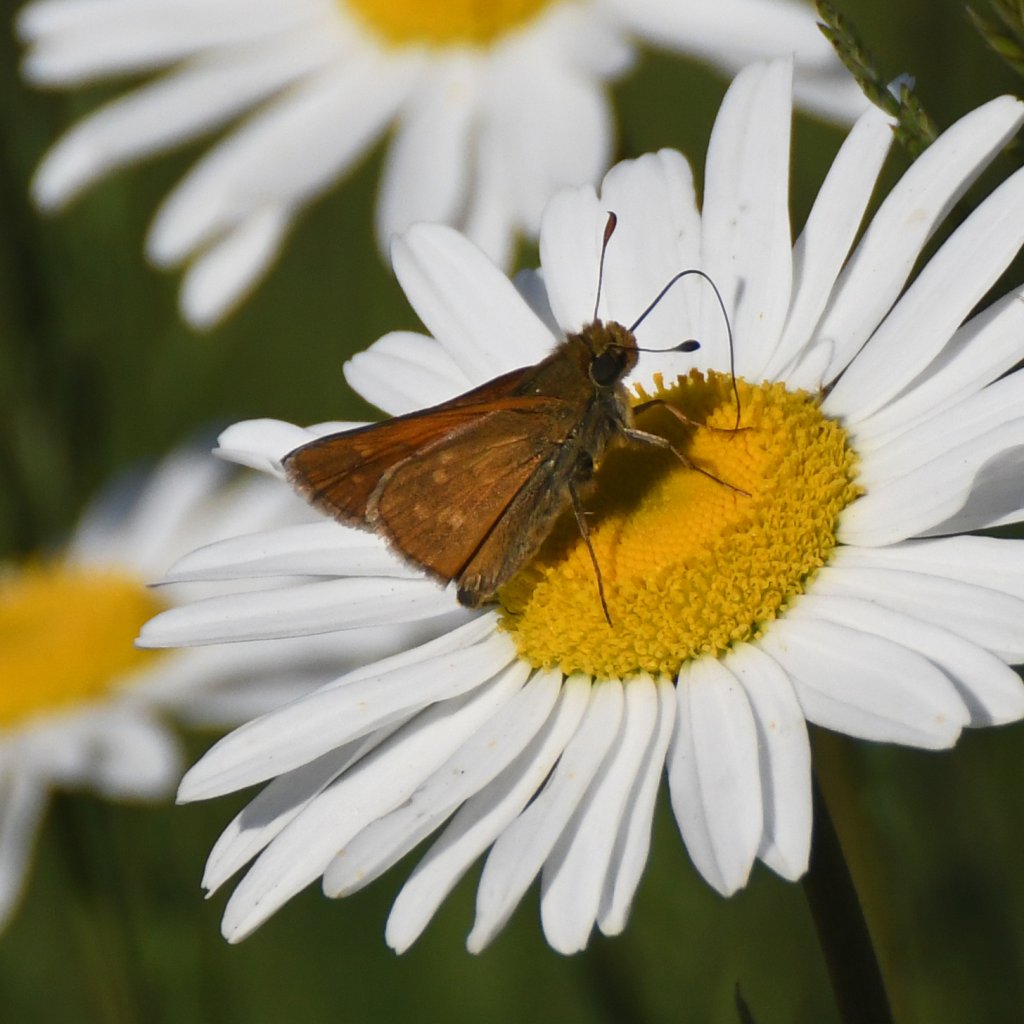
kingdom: Animalia
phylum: Arthropoda
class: Insecta
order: Lepidoptera
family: Hesperiidae
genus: Hesperia
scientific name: Hesperia sassacus
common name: Sassacus Skipper
